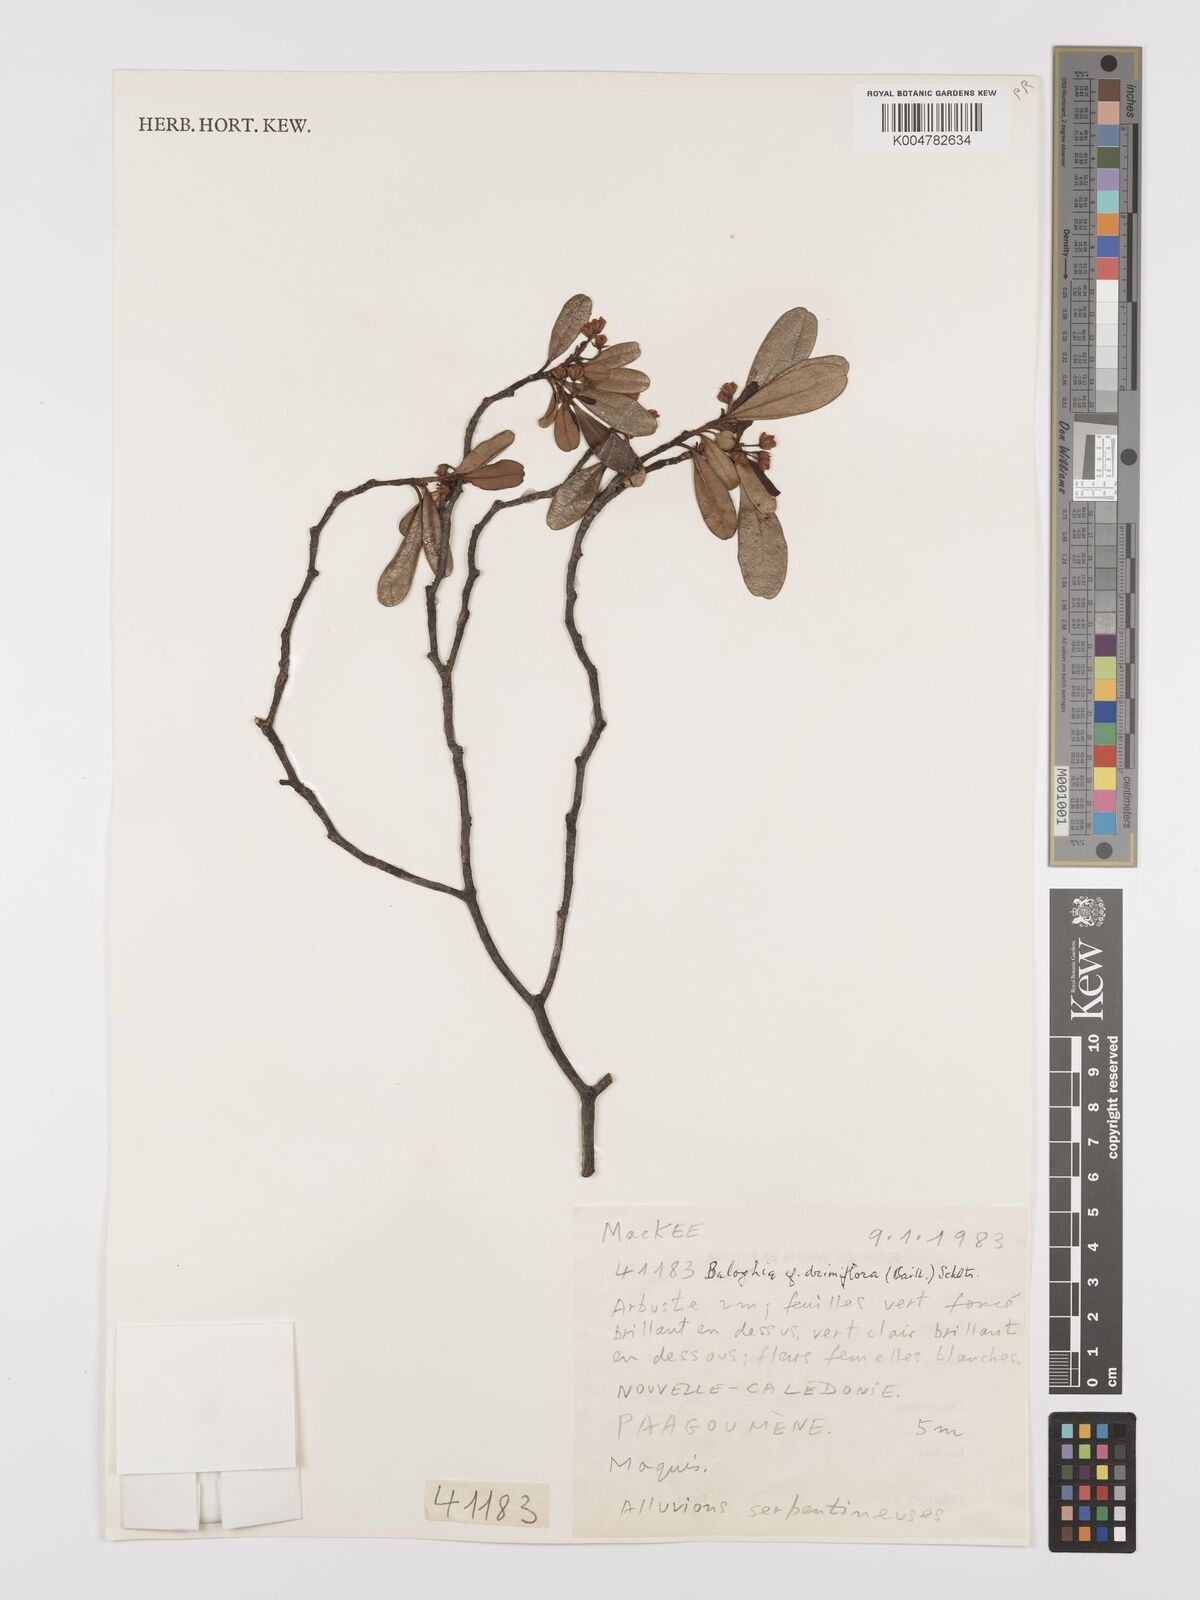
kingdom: Plantae
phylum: Tracheophyta
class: Magnoliopsida
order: Malpighiales
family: Euphorbiaceae
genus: Baloghia
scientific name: Baloghia drimiflora
